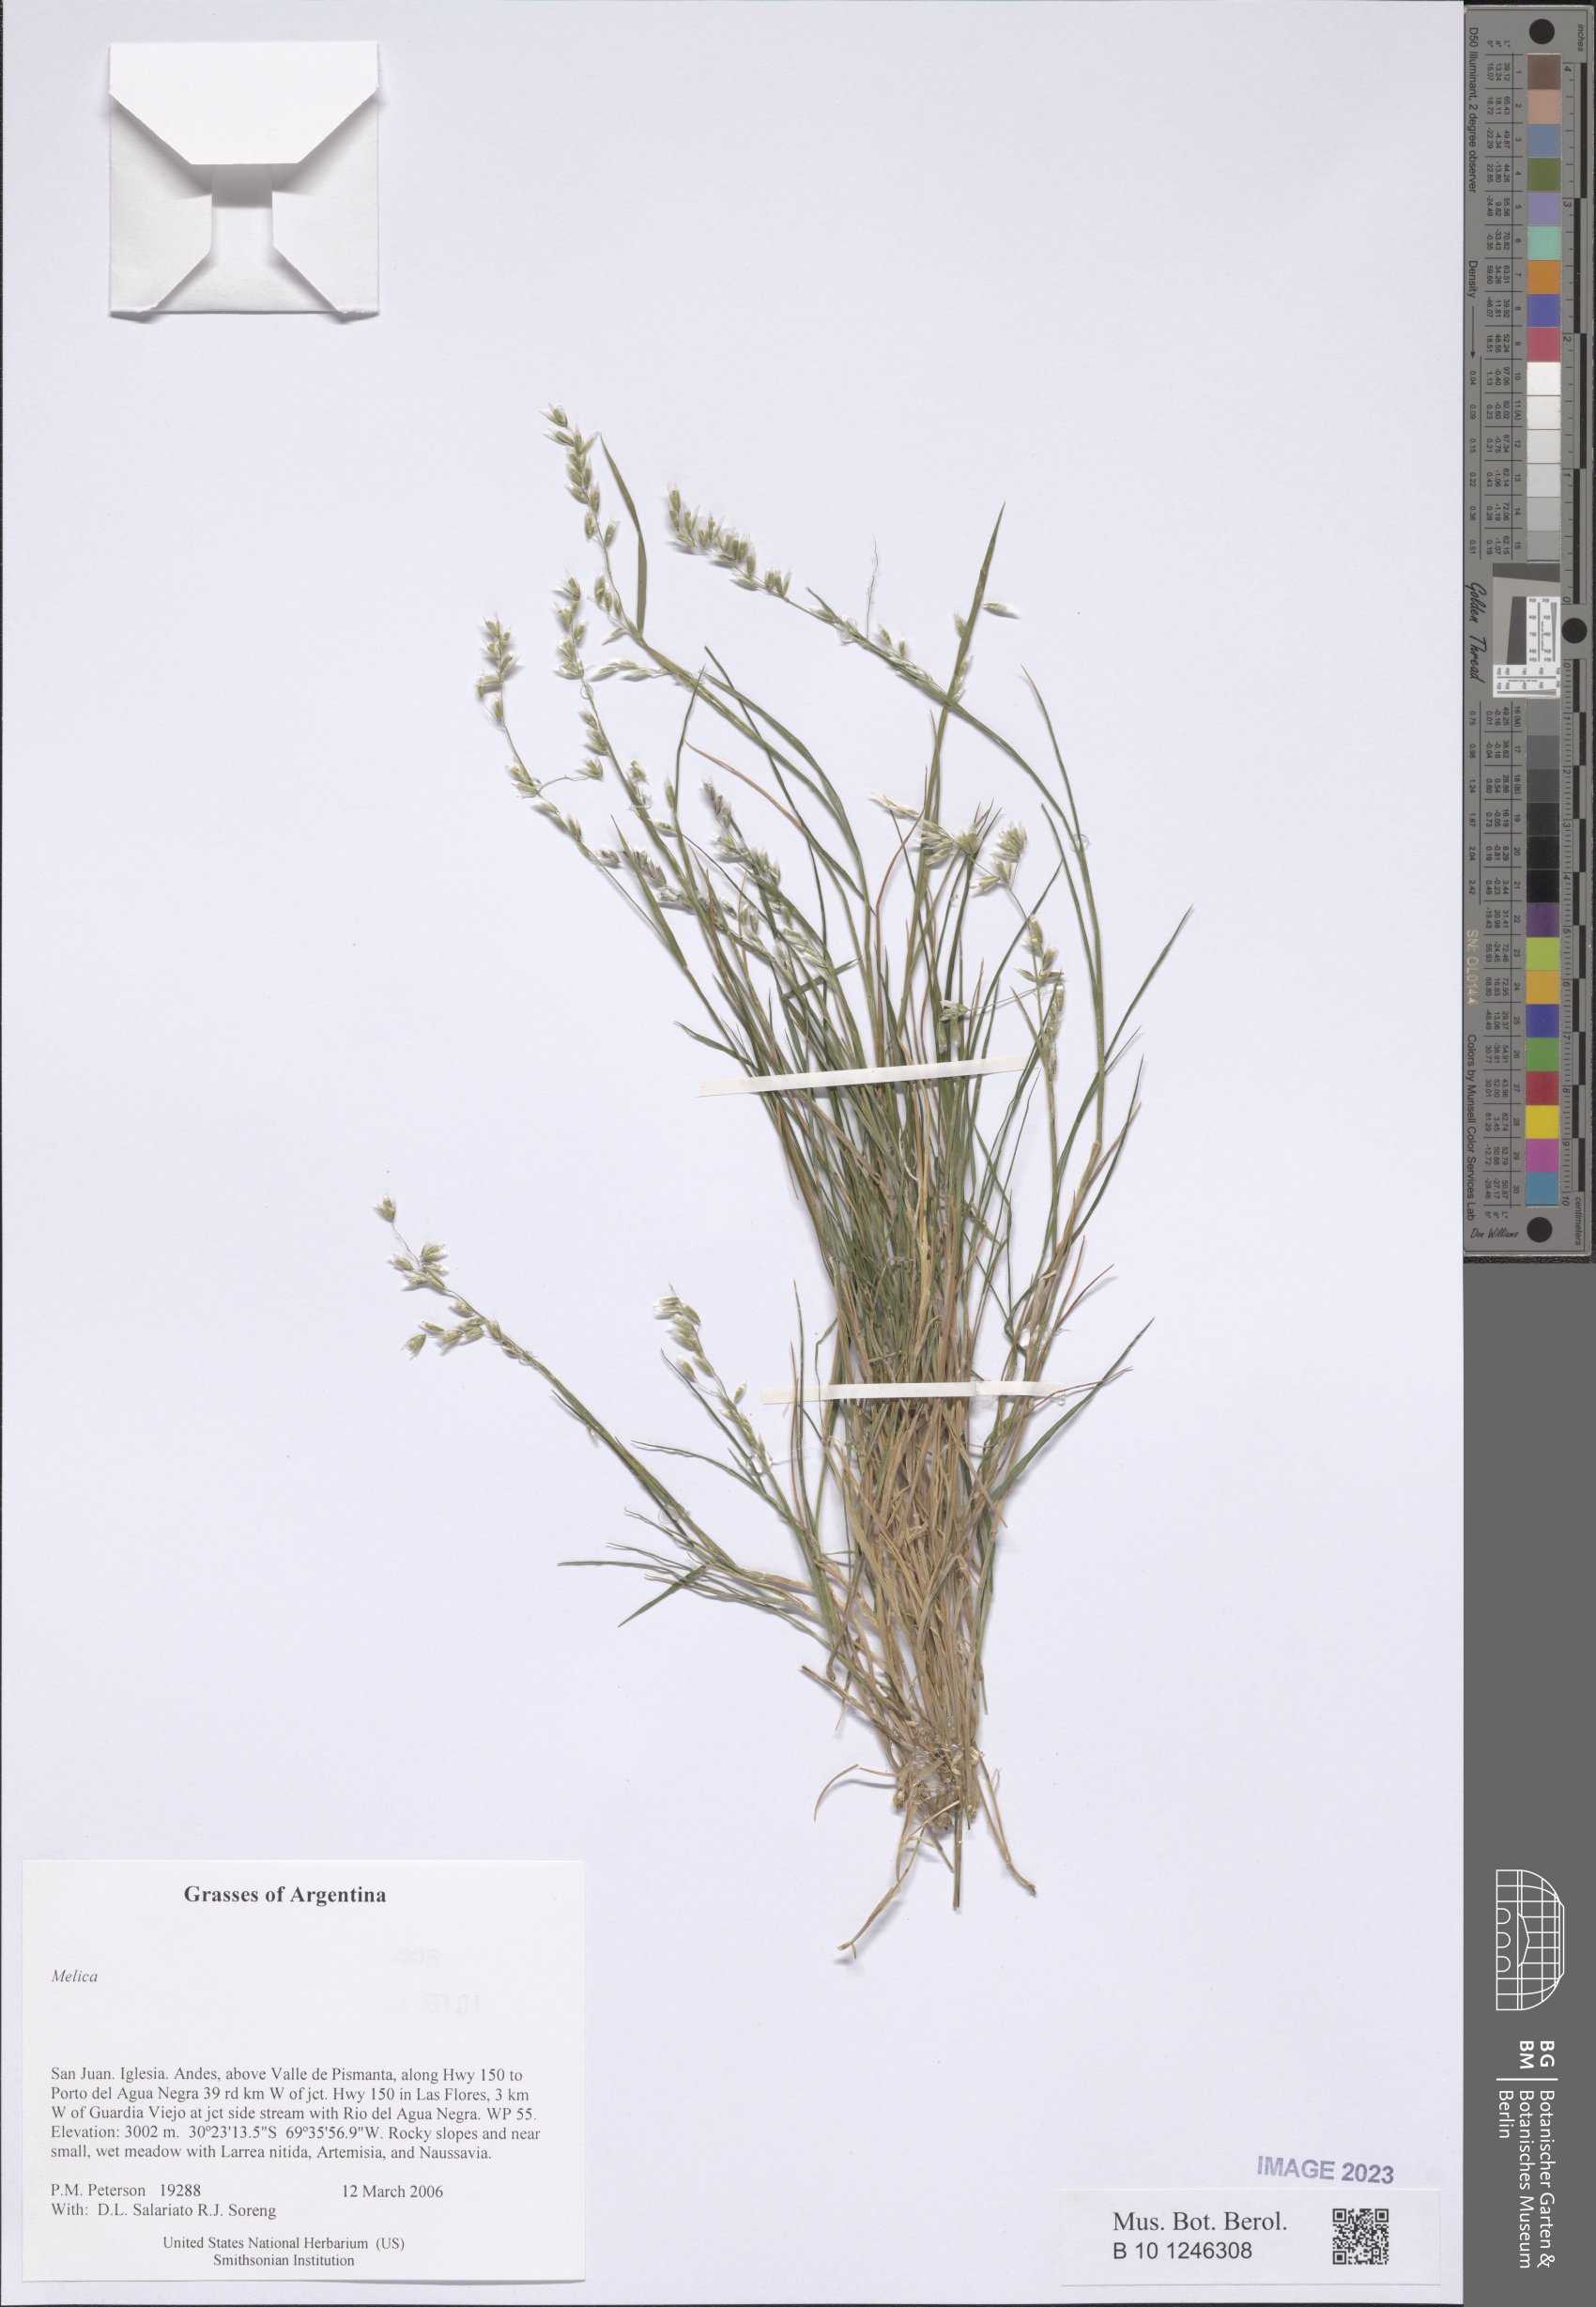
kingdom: Plantae
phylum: Tracheophyta
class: Liliopsida
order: Poales
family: Poaceae
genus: Melica
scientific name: Melica
